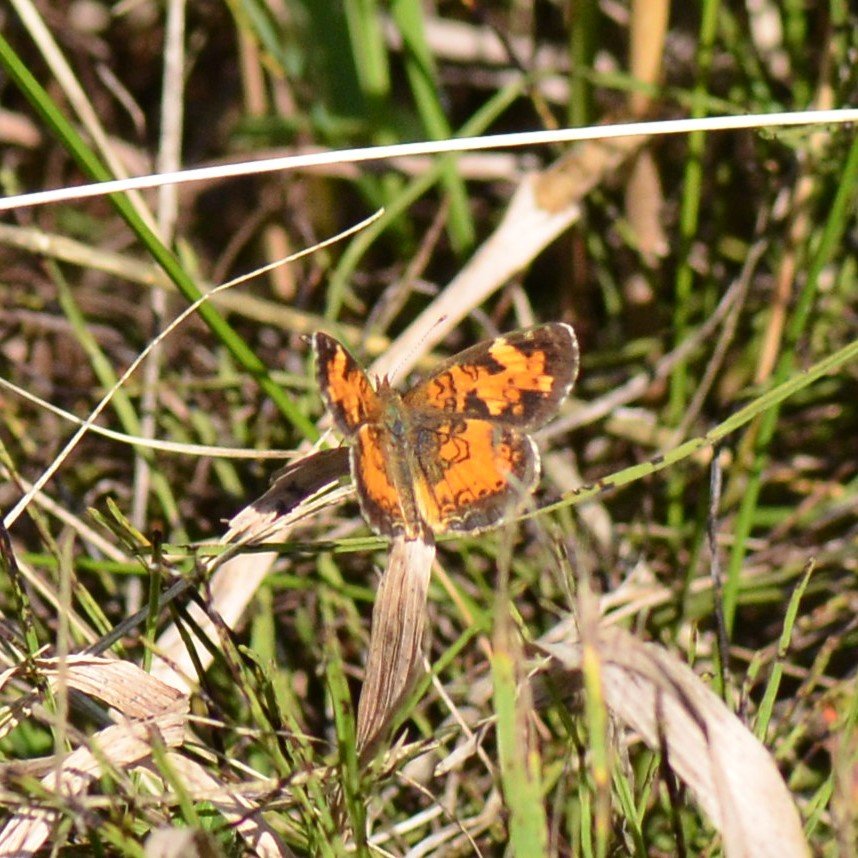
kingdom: Animalia
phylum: Arthropoda
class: Insecta
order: Lepidoptera
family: Nymphalidae
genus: Phyciodes
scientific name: Phyciodes tharos
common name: Northern Crescent
